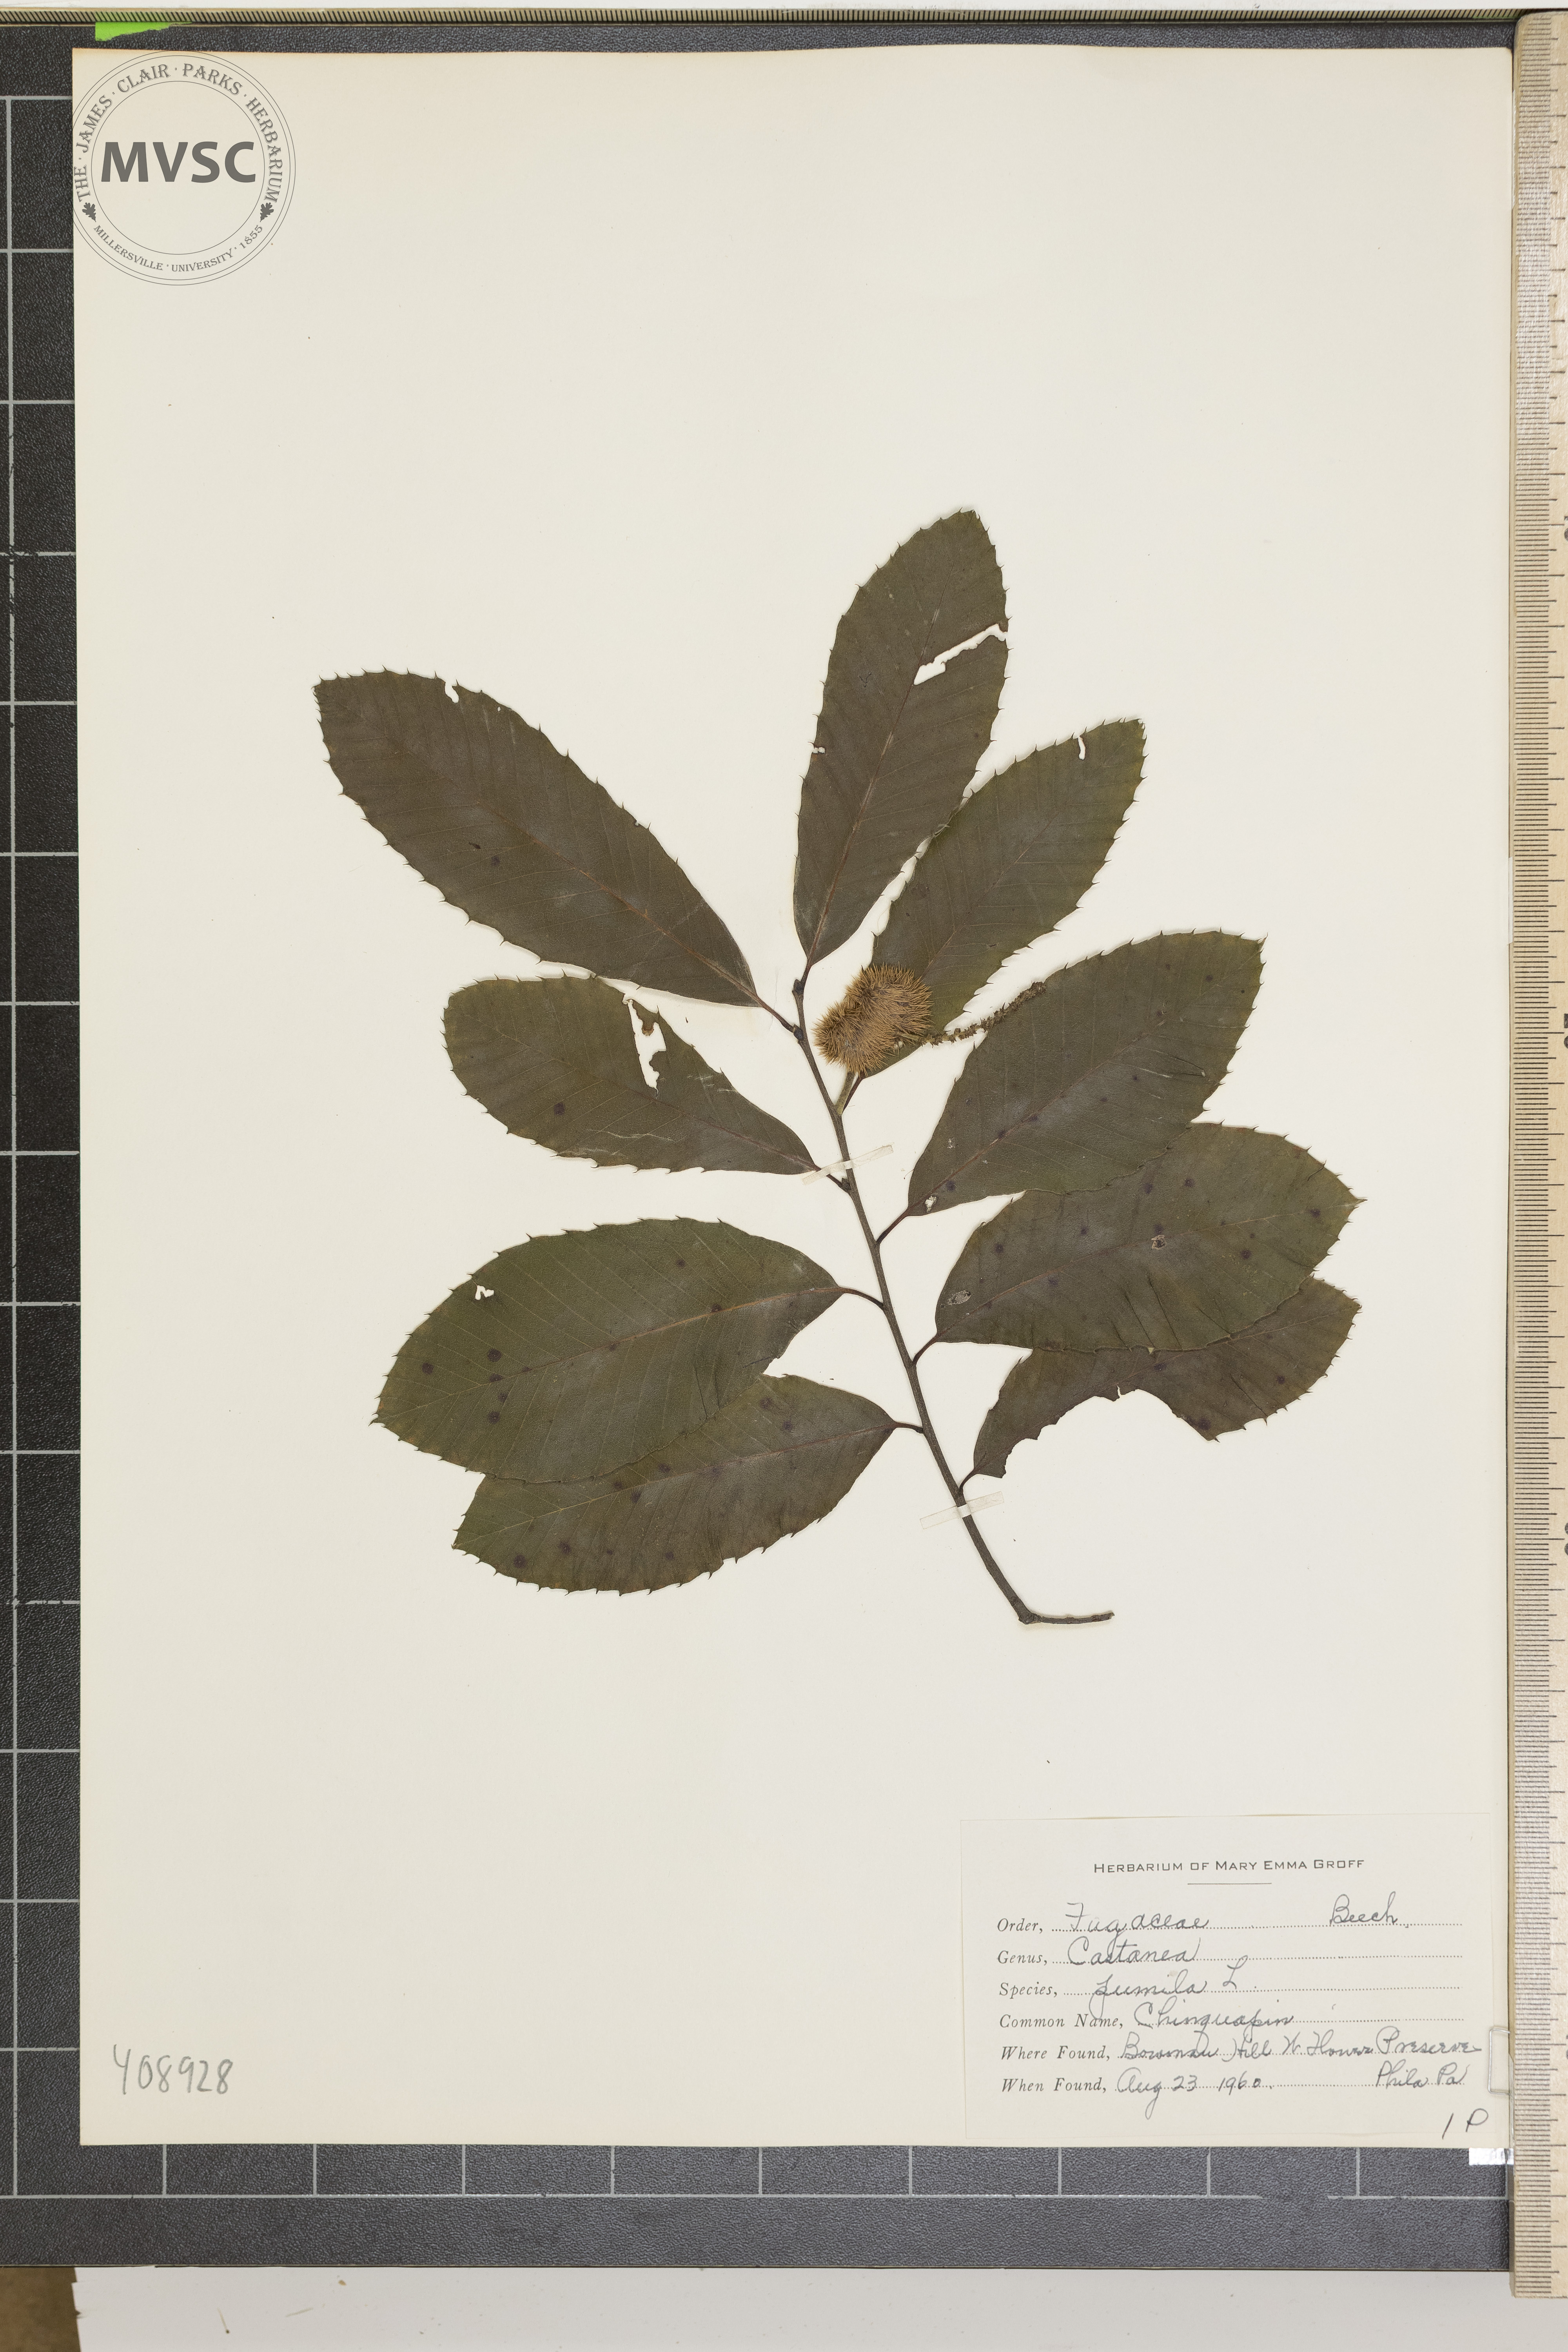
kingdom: Plantae
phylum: Tracheophyta
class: Magnoliopsida
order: Fagales
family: Fagaceae
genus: Castanea
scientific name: Castanea pumila
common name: Chinquapin
